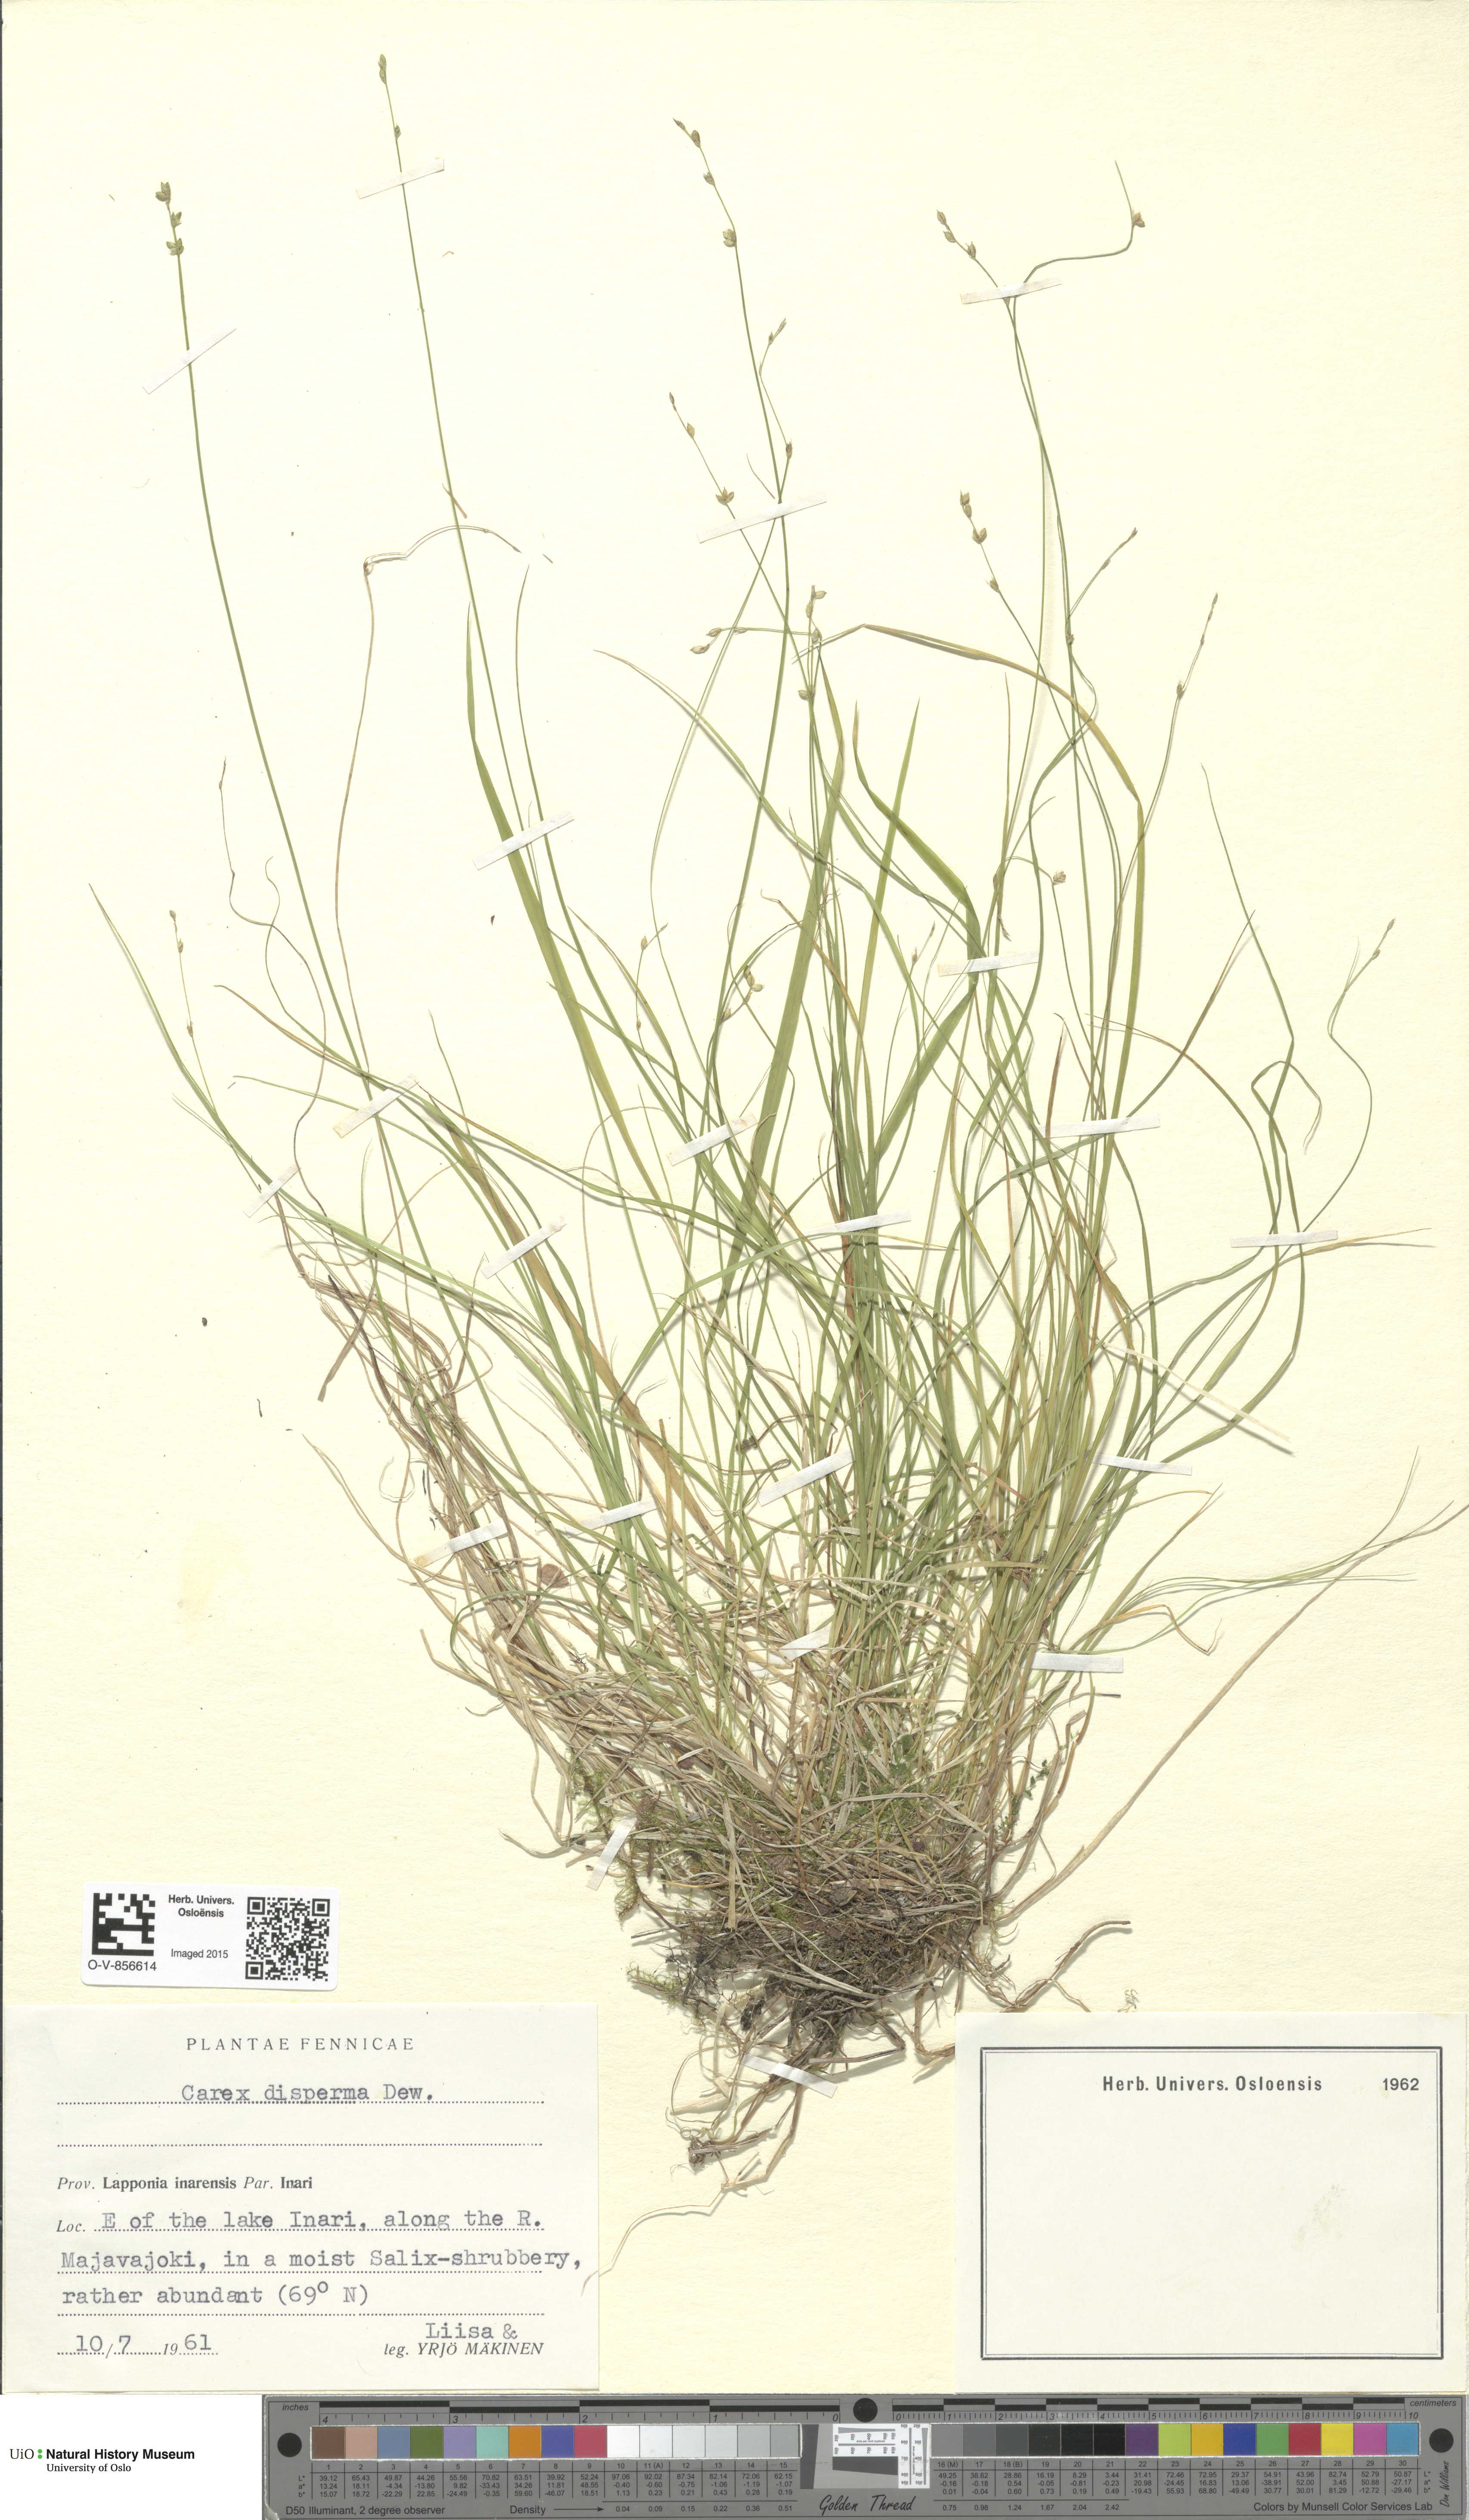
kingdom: Plantae
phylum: Tracheophyta
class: Liliopsida
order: Poales
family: Cyperaceae
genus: Carex
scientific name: Carex disperma
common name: Short-leaved sedge
